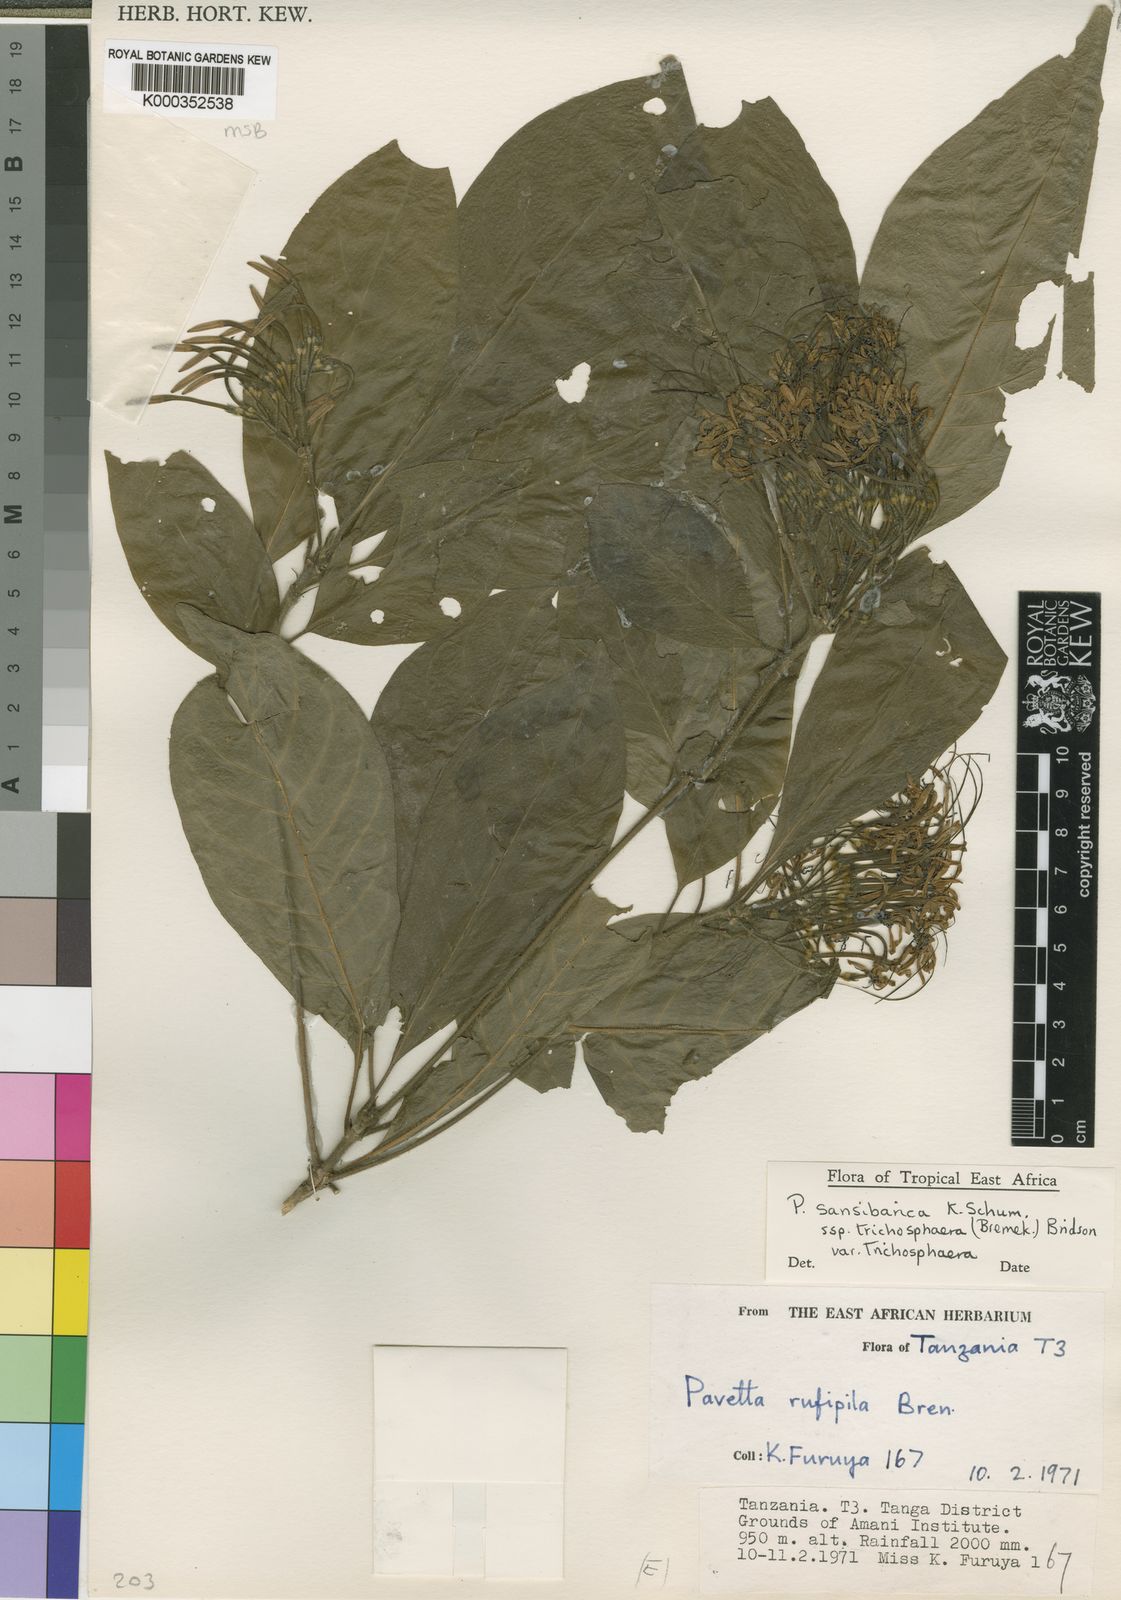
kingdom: Plantae
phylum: Tracheophyta
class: Magnoliopsida
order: Gentianales
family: Rubiaceae
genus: Pavetta
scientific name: Pavetta sansibarica
